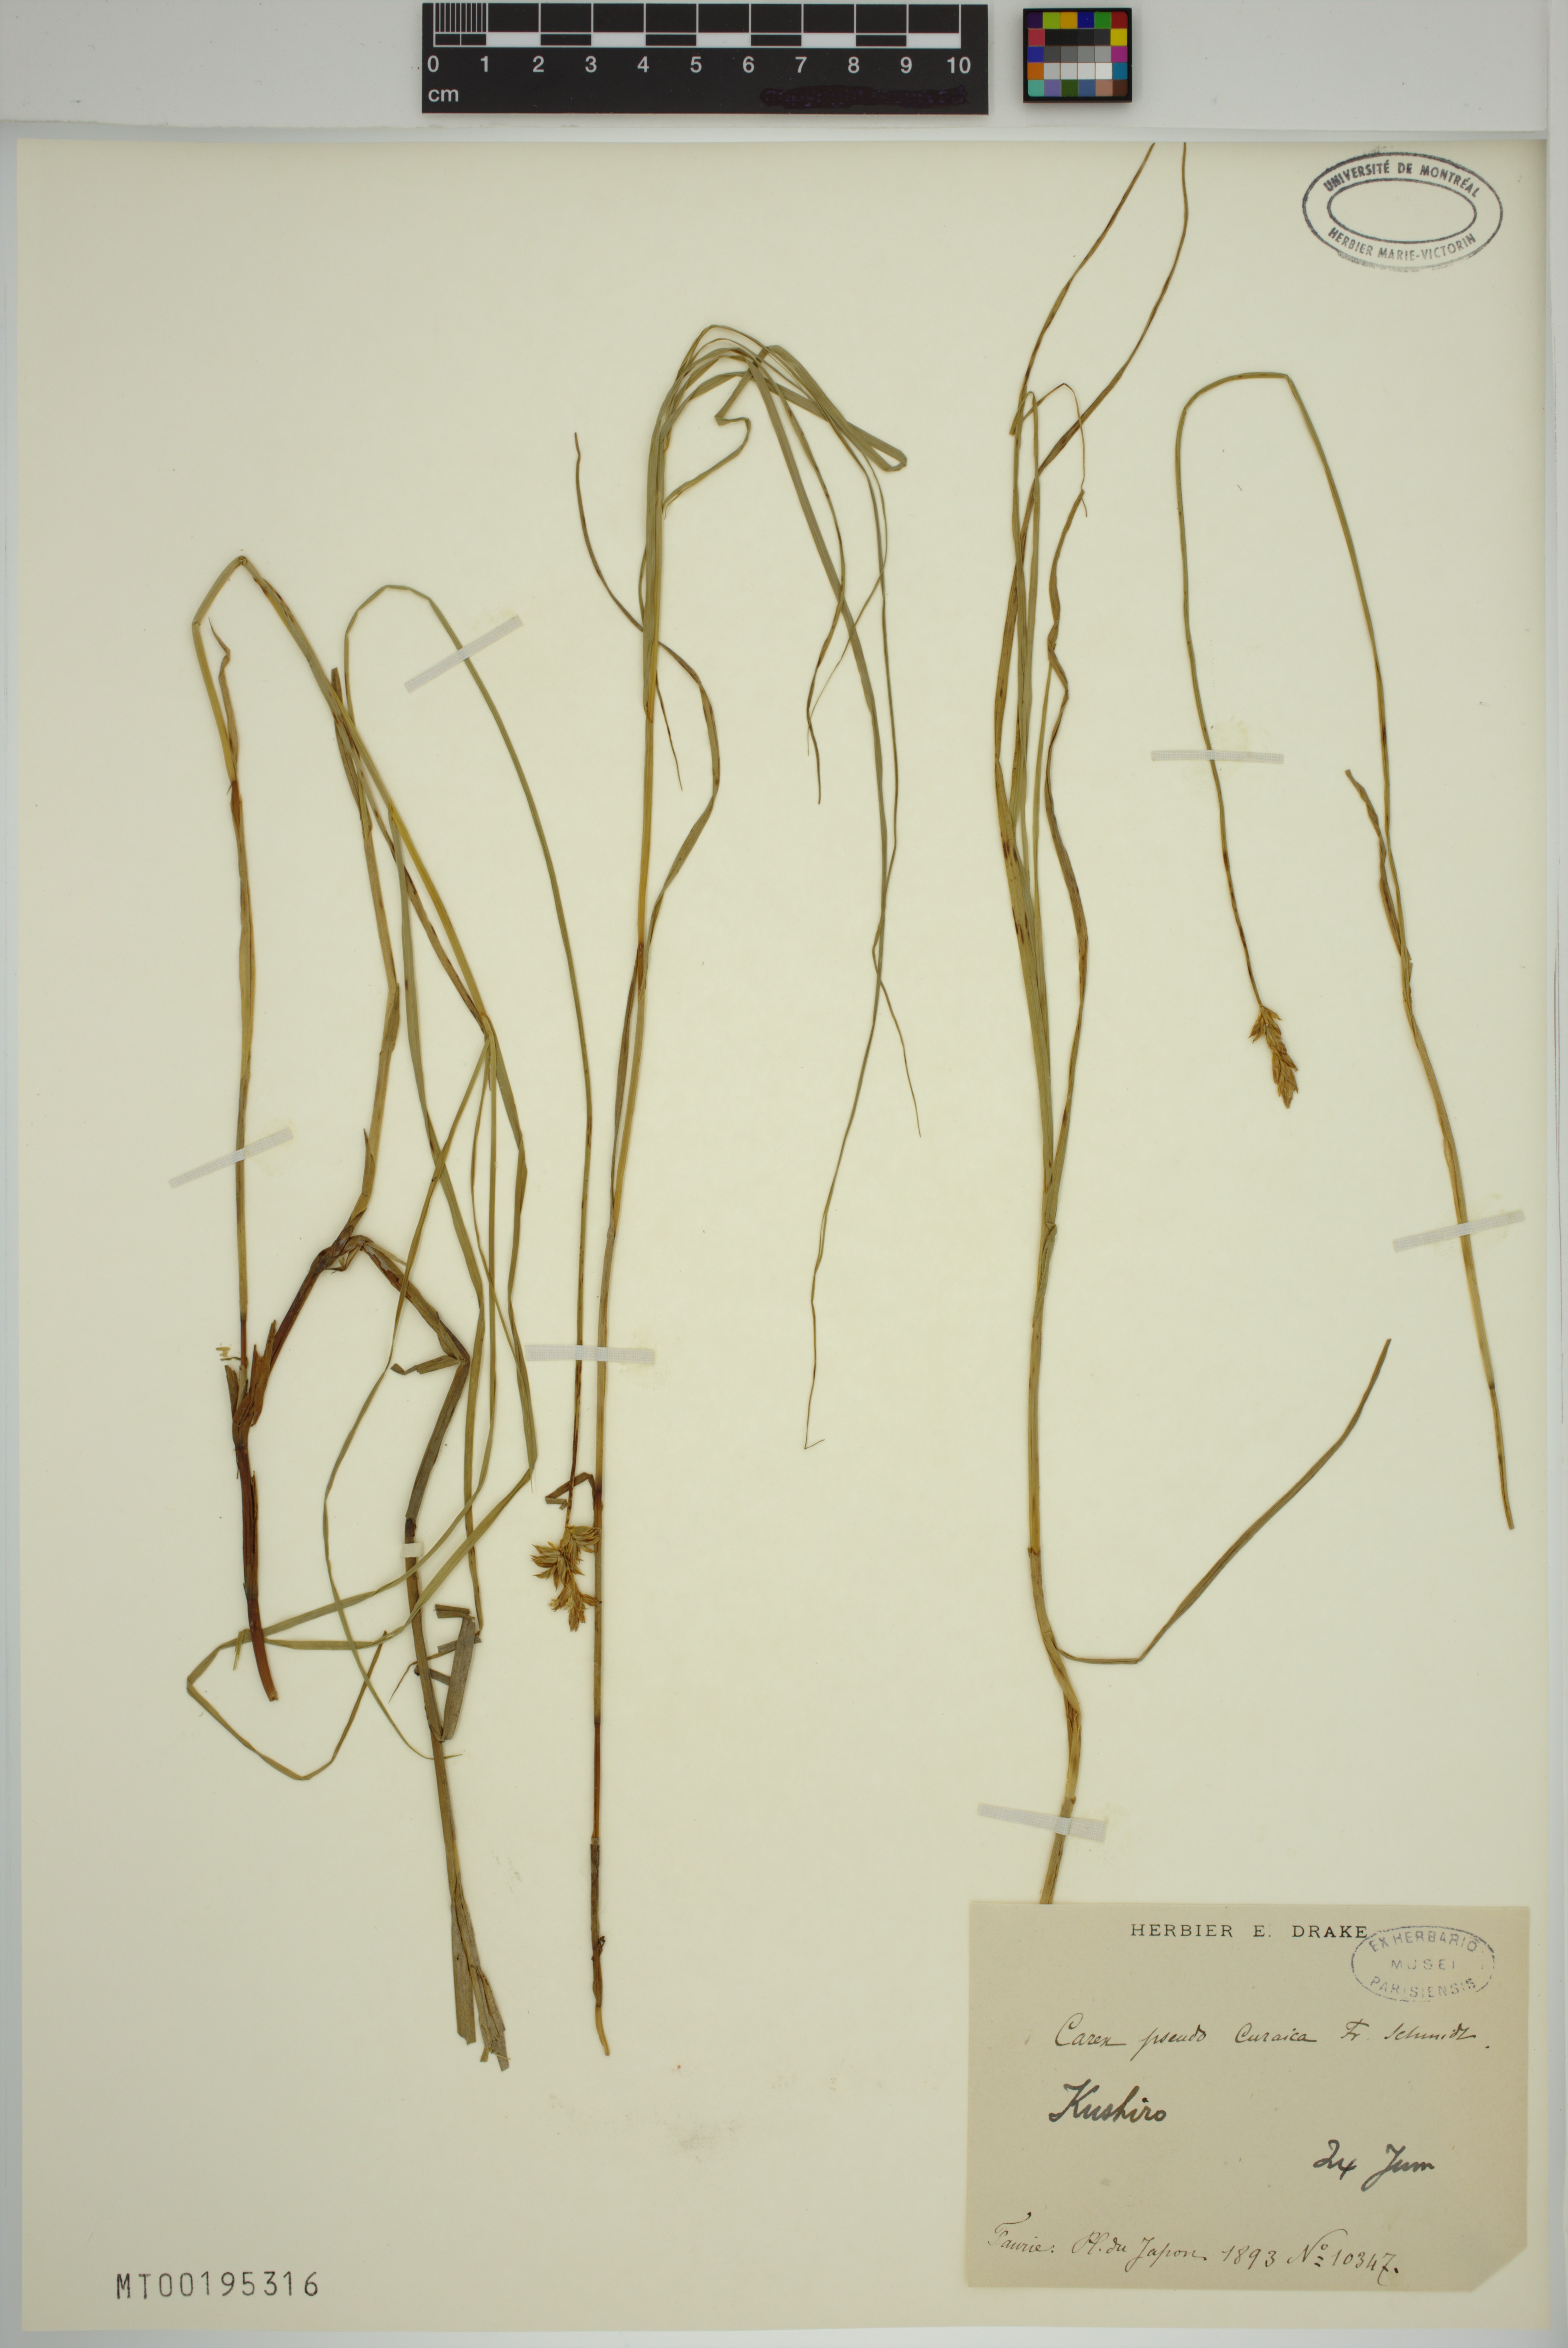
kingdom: Plantae
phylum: Tracheophyta
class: Liliopsida
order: Poales
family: Cyperaceae
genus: Carex
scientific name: Carex pseudocuraica
